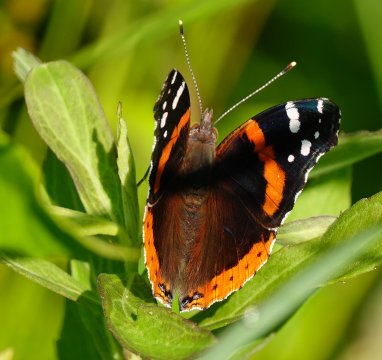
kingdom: Animalia
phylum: Arthropoda
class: Insecta
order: Lepidoptera
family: Nymphalidae
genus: Vanessa
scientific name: Vanessa atalanta
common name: Red Admiral
